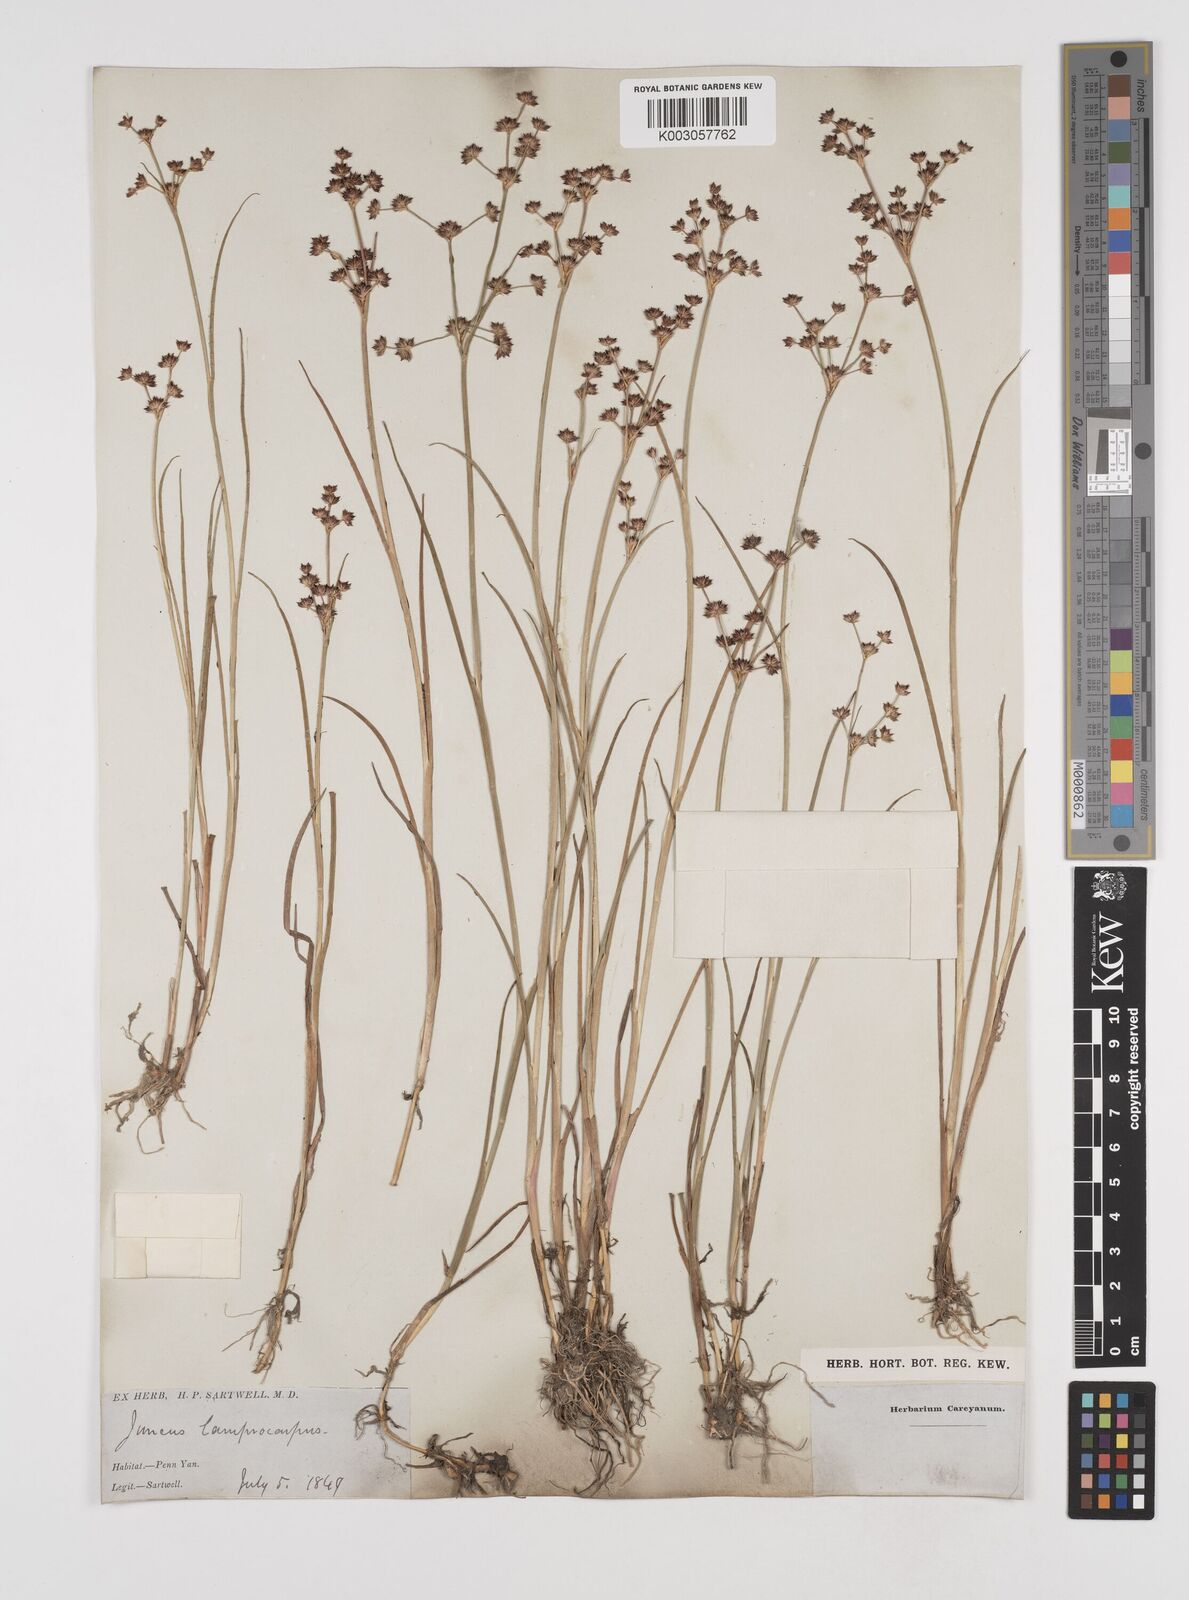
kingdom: Plantae
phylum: Tracheophyta
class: Liliopsida
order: Poales
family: Juncaceae
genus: Juncus
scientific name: Juncus articulatus
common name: Jointed rush
